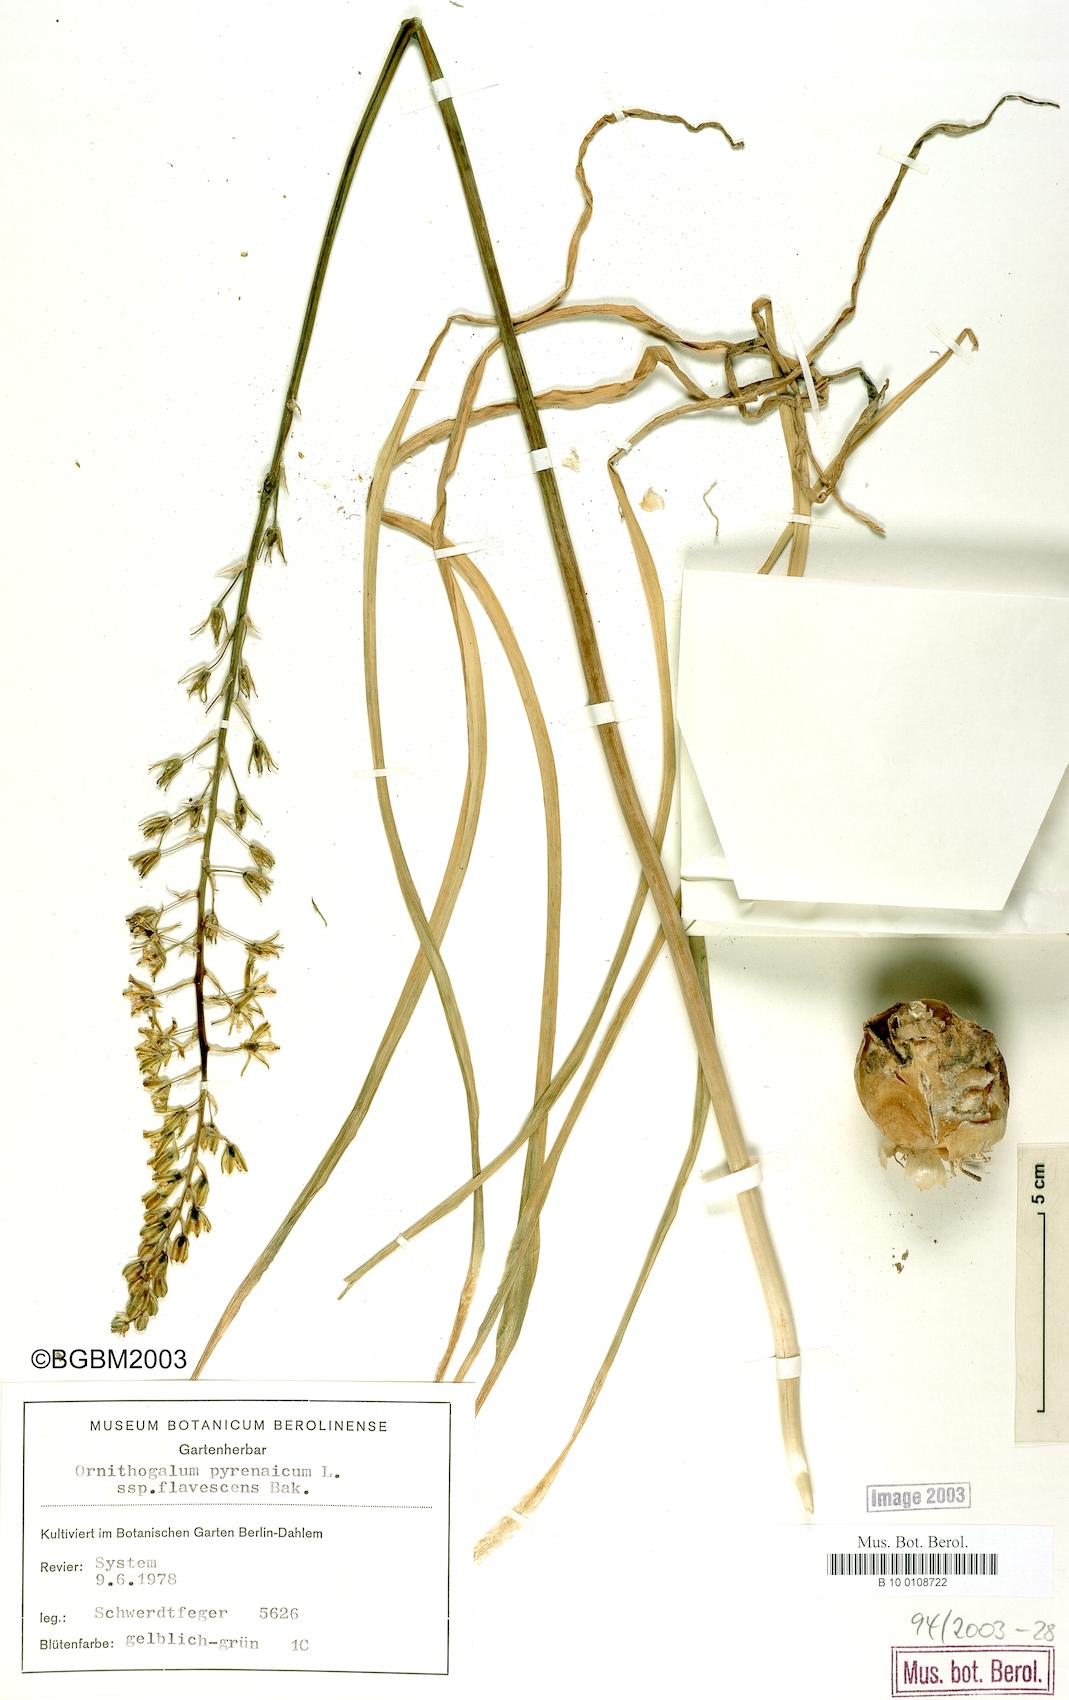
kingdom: Plantae
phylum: Tracheophyta
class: Liliopsida
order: Asparagales
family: Asparagaceae
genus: Ornithogalum
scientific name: Ornithogalum pyrenaicum
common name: Spiked star-of-bethlehem
